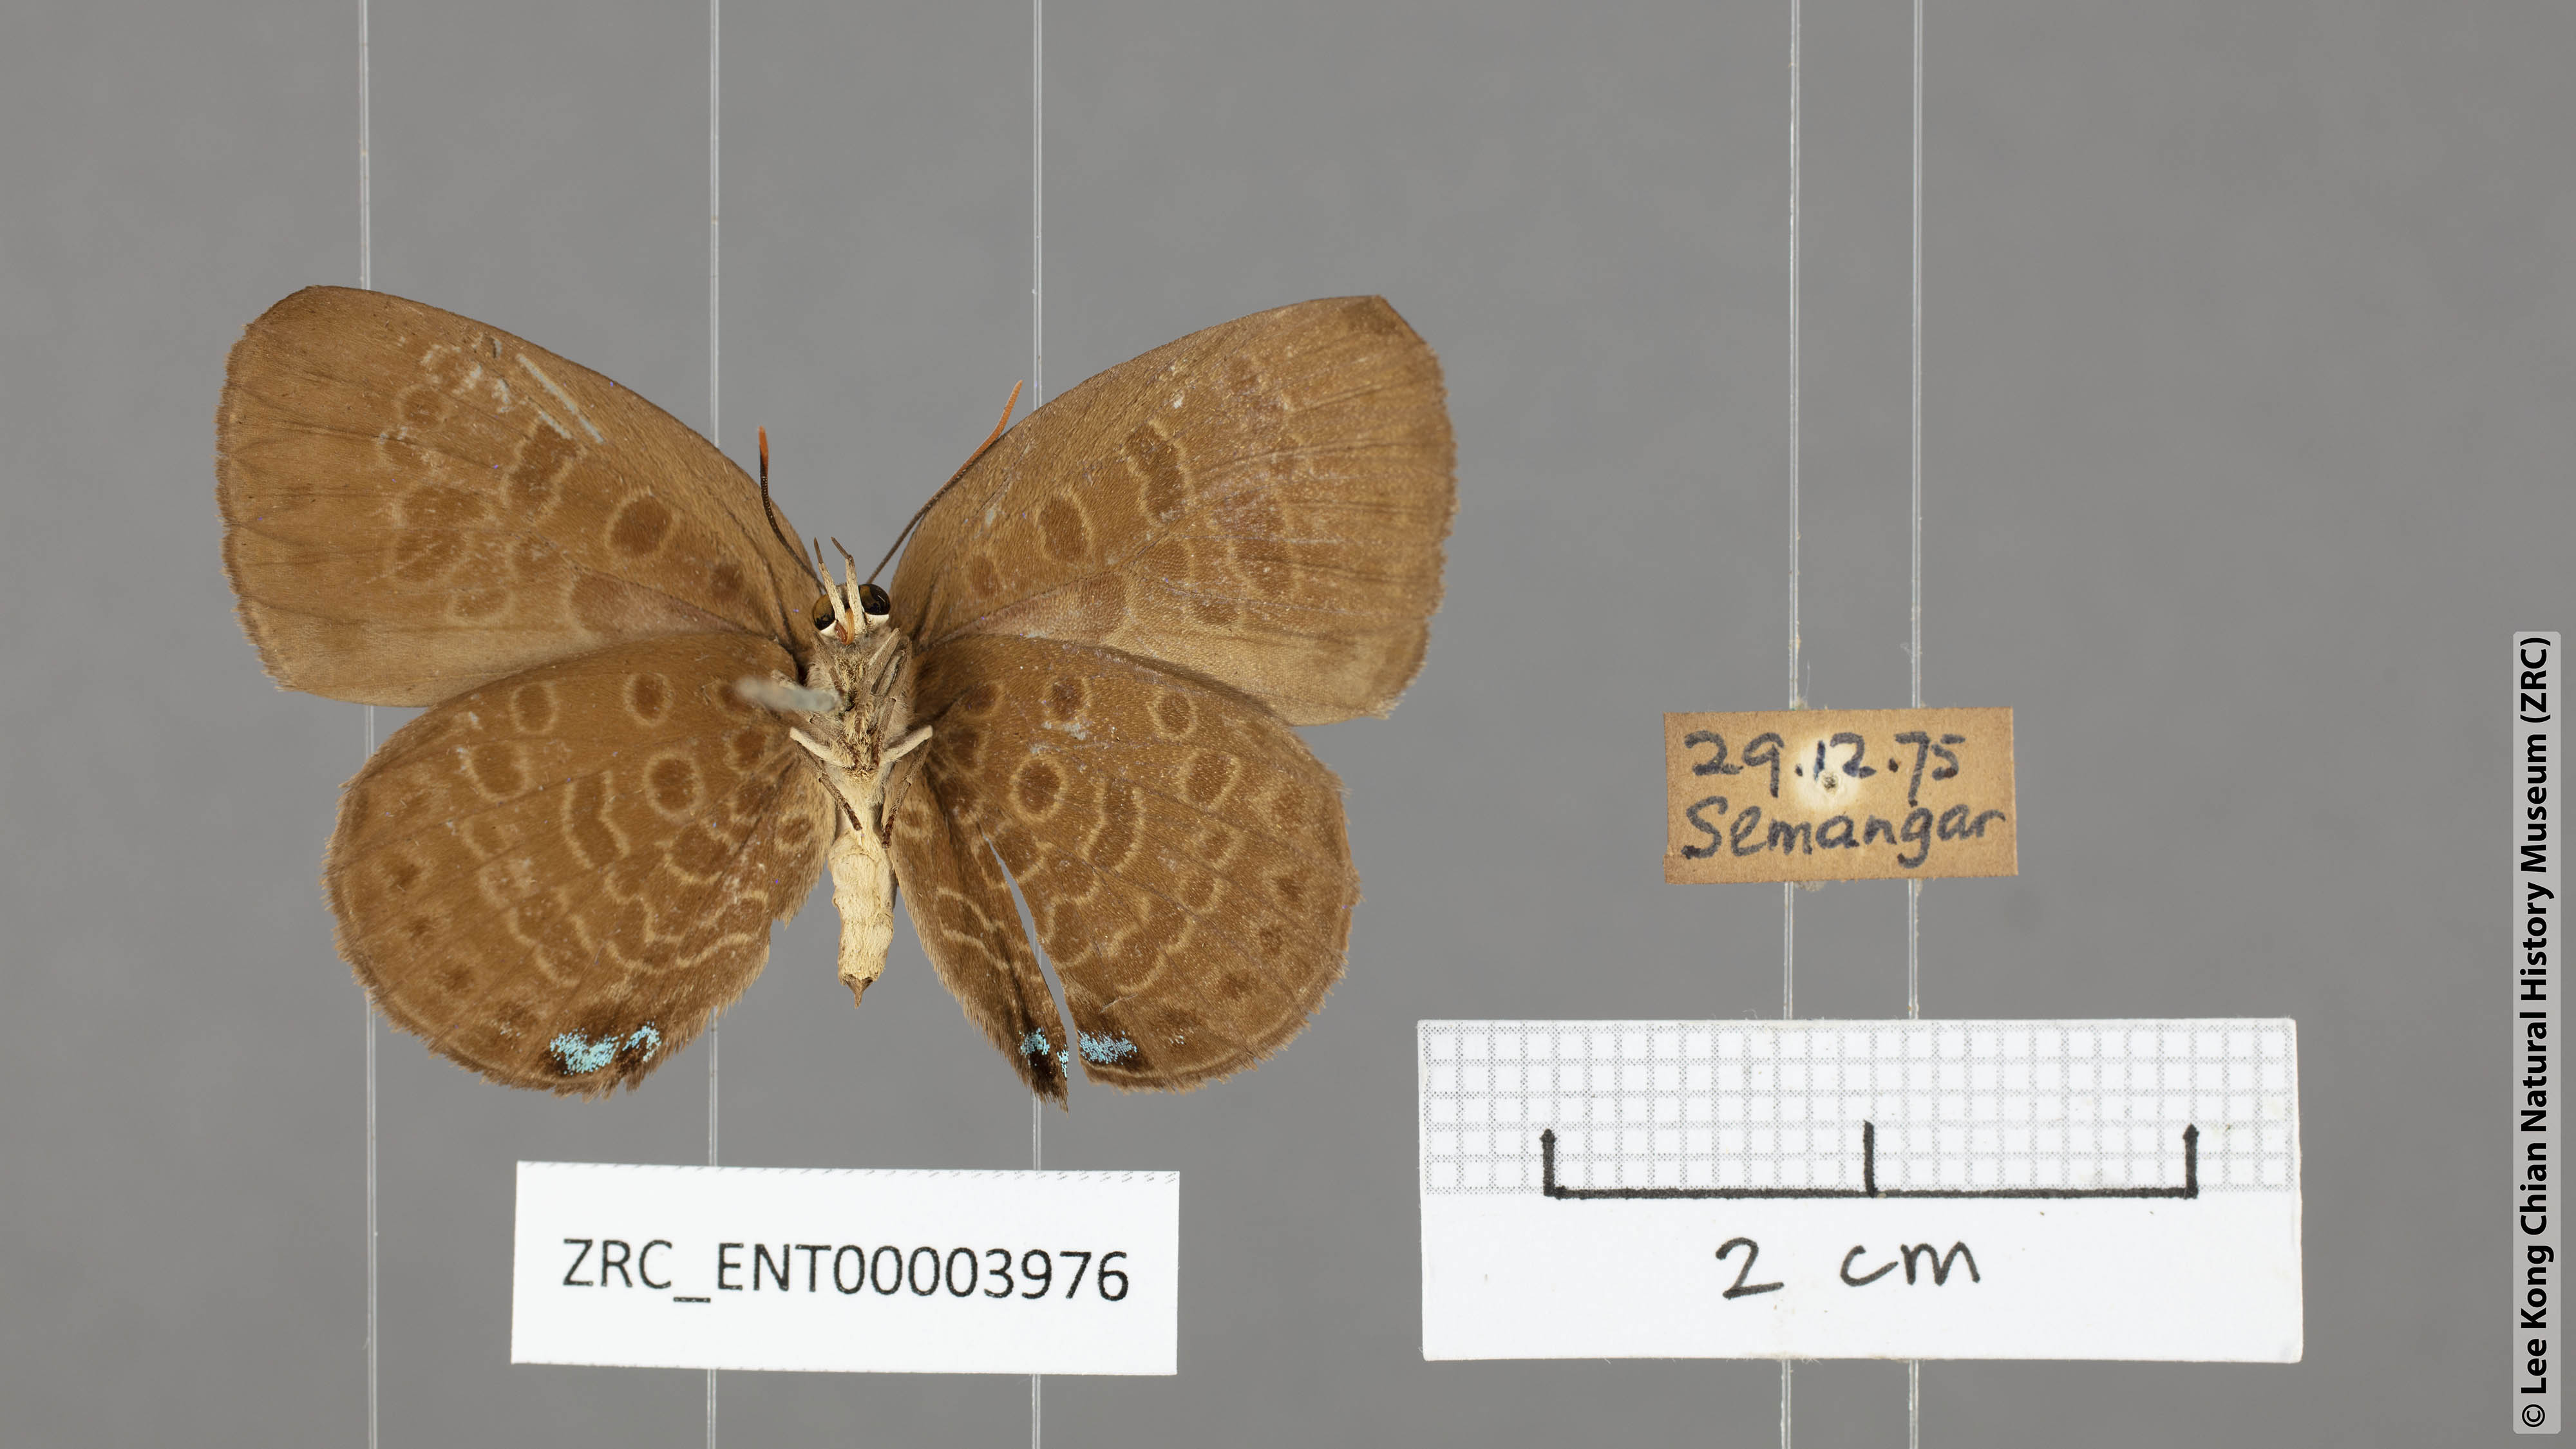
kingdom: Animalia
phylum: Arthropoda
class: Insecta
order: Lepidoptera
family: Lycaenidae
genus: Arhopala
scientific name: Arhopala kurzi
